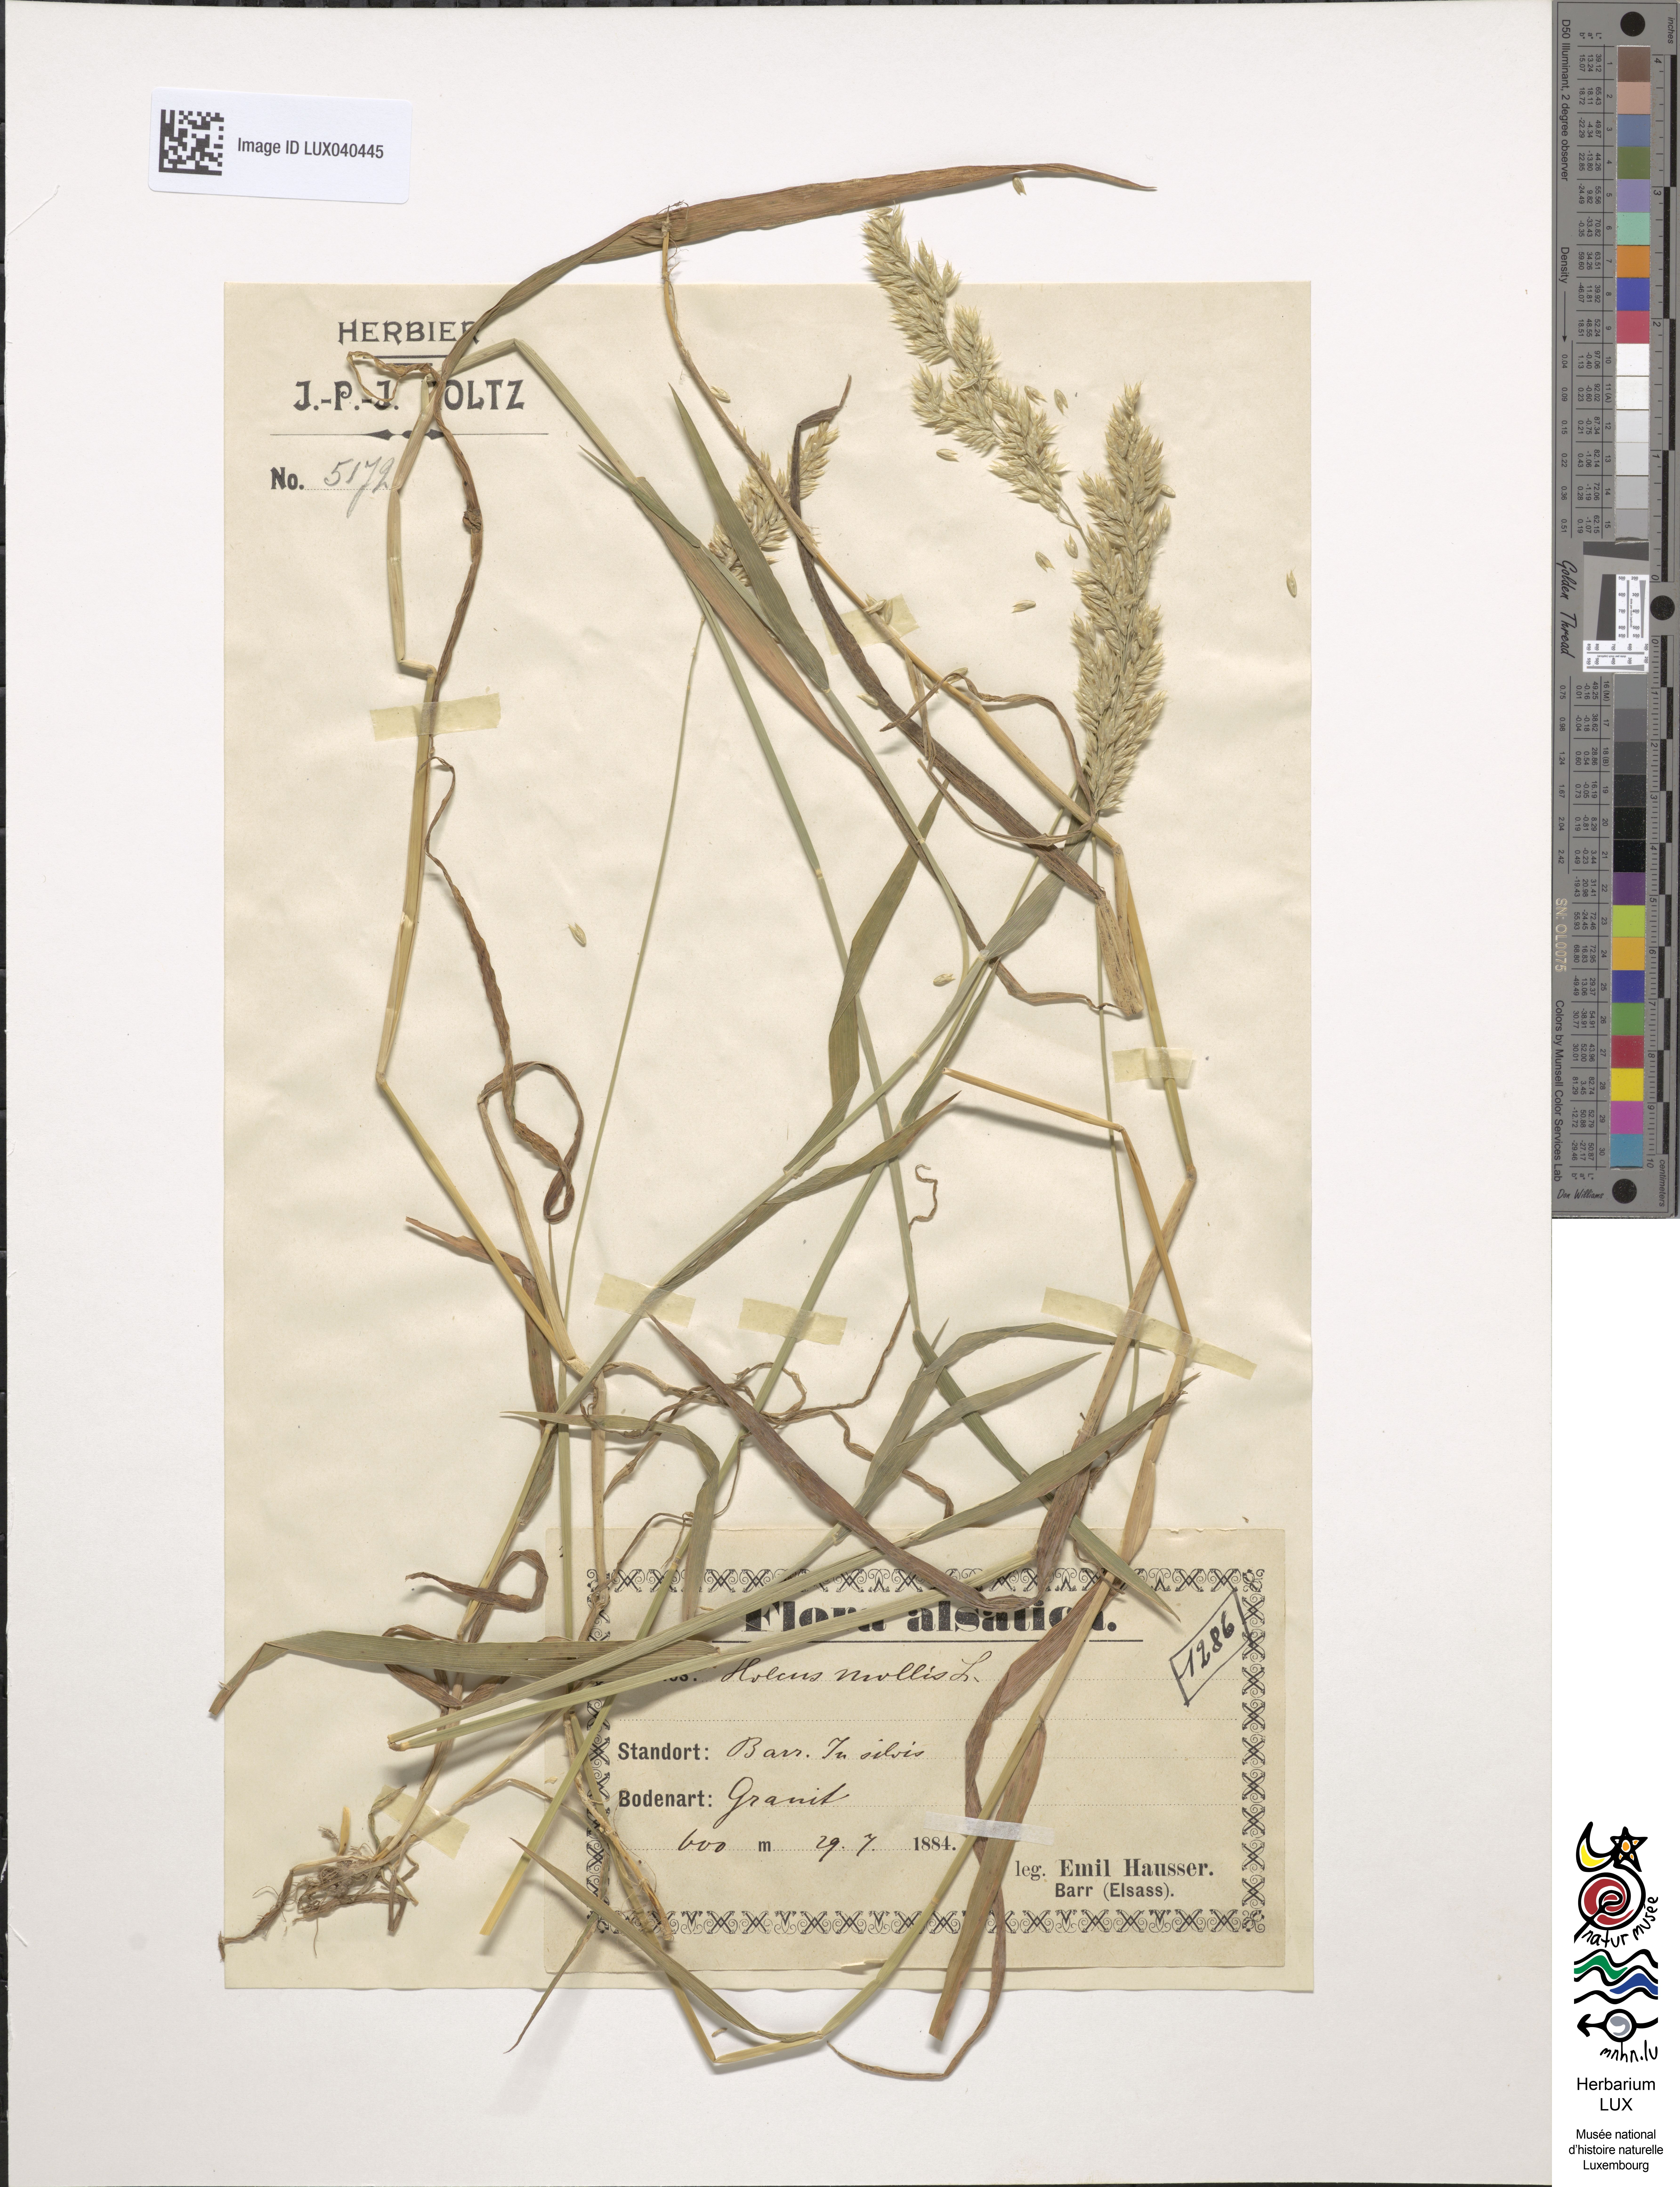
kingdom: Plantae
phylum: Tracheophyta
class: Liliopsida
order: Poales
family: Poaceae
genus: Holcus
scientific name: Holcus mollis
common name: Creeping velvetgrass
